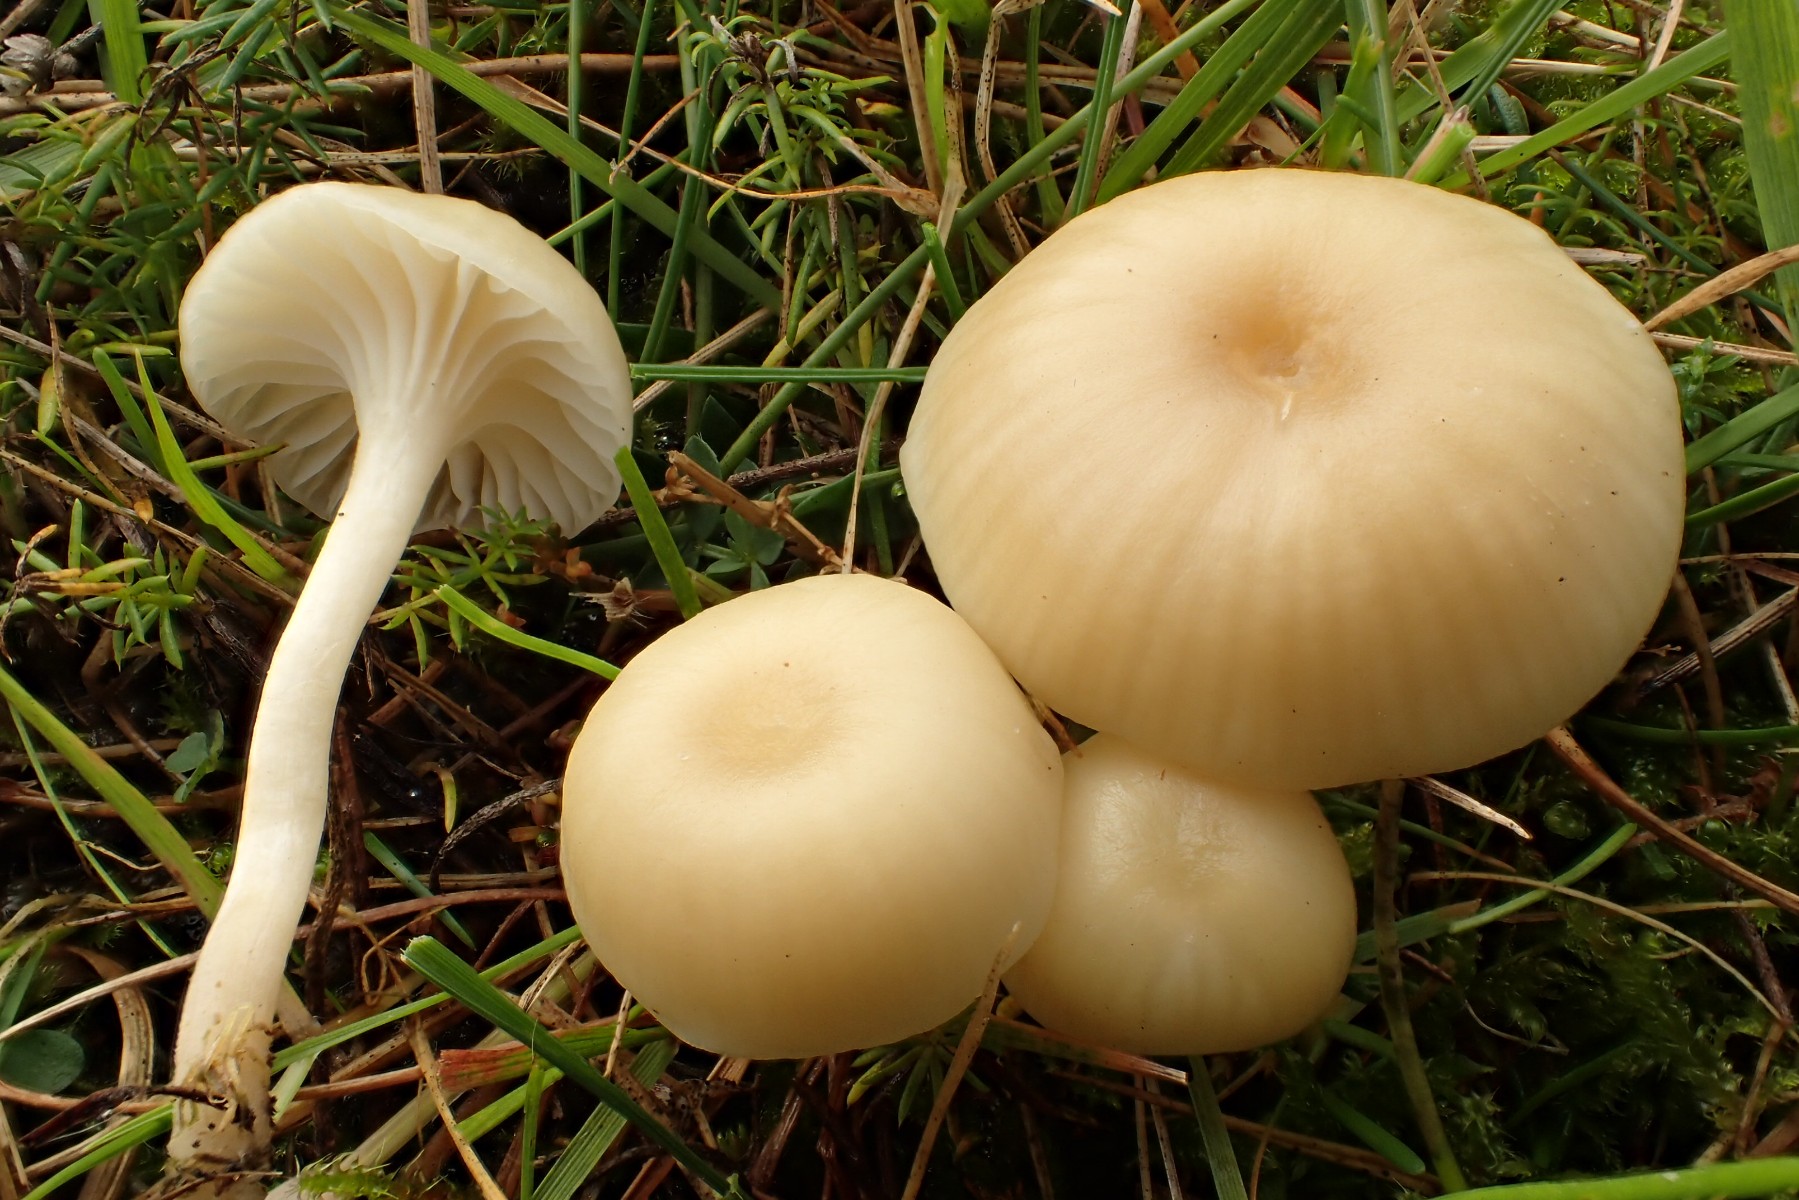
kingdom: Fungi
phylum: Basidiomycota
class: Agaricomycetes
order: Agaricales
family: Hygrophoraceae
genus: Hygrocybe
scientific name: Hygrocybe
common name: vokshat
